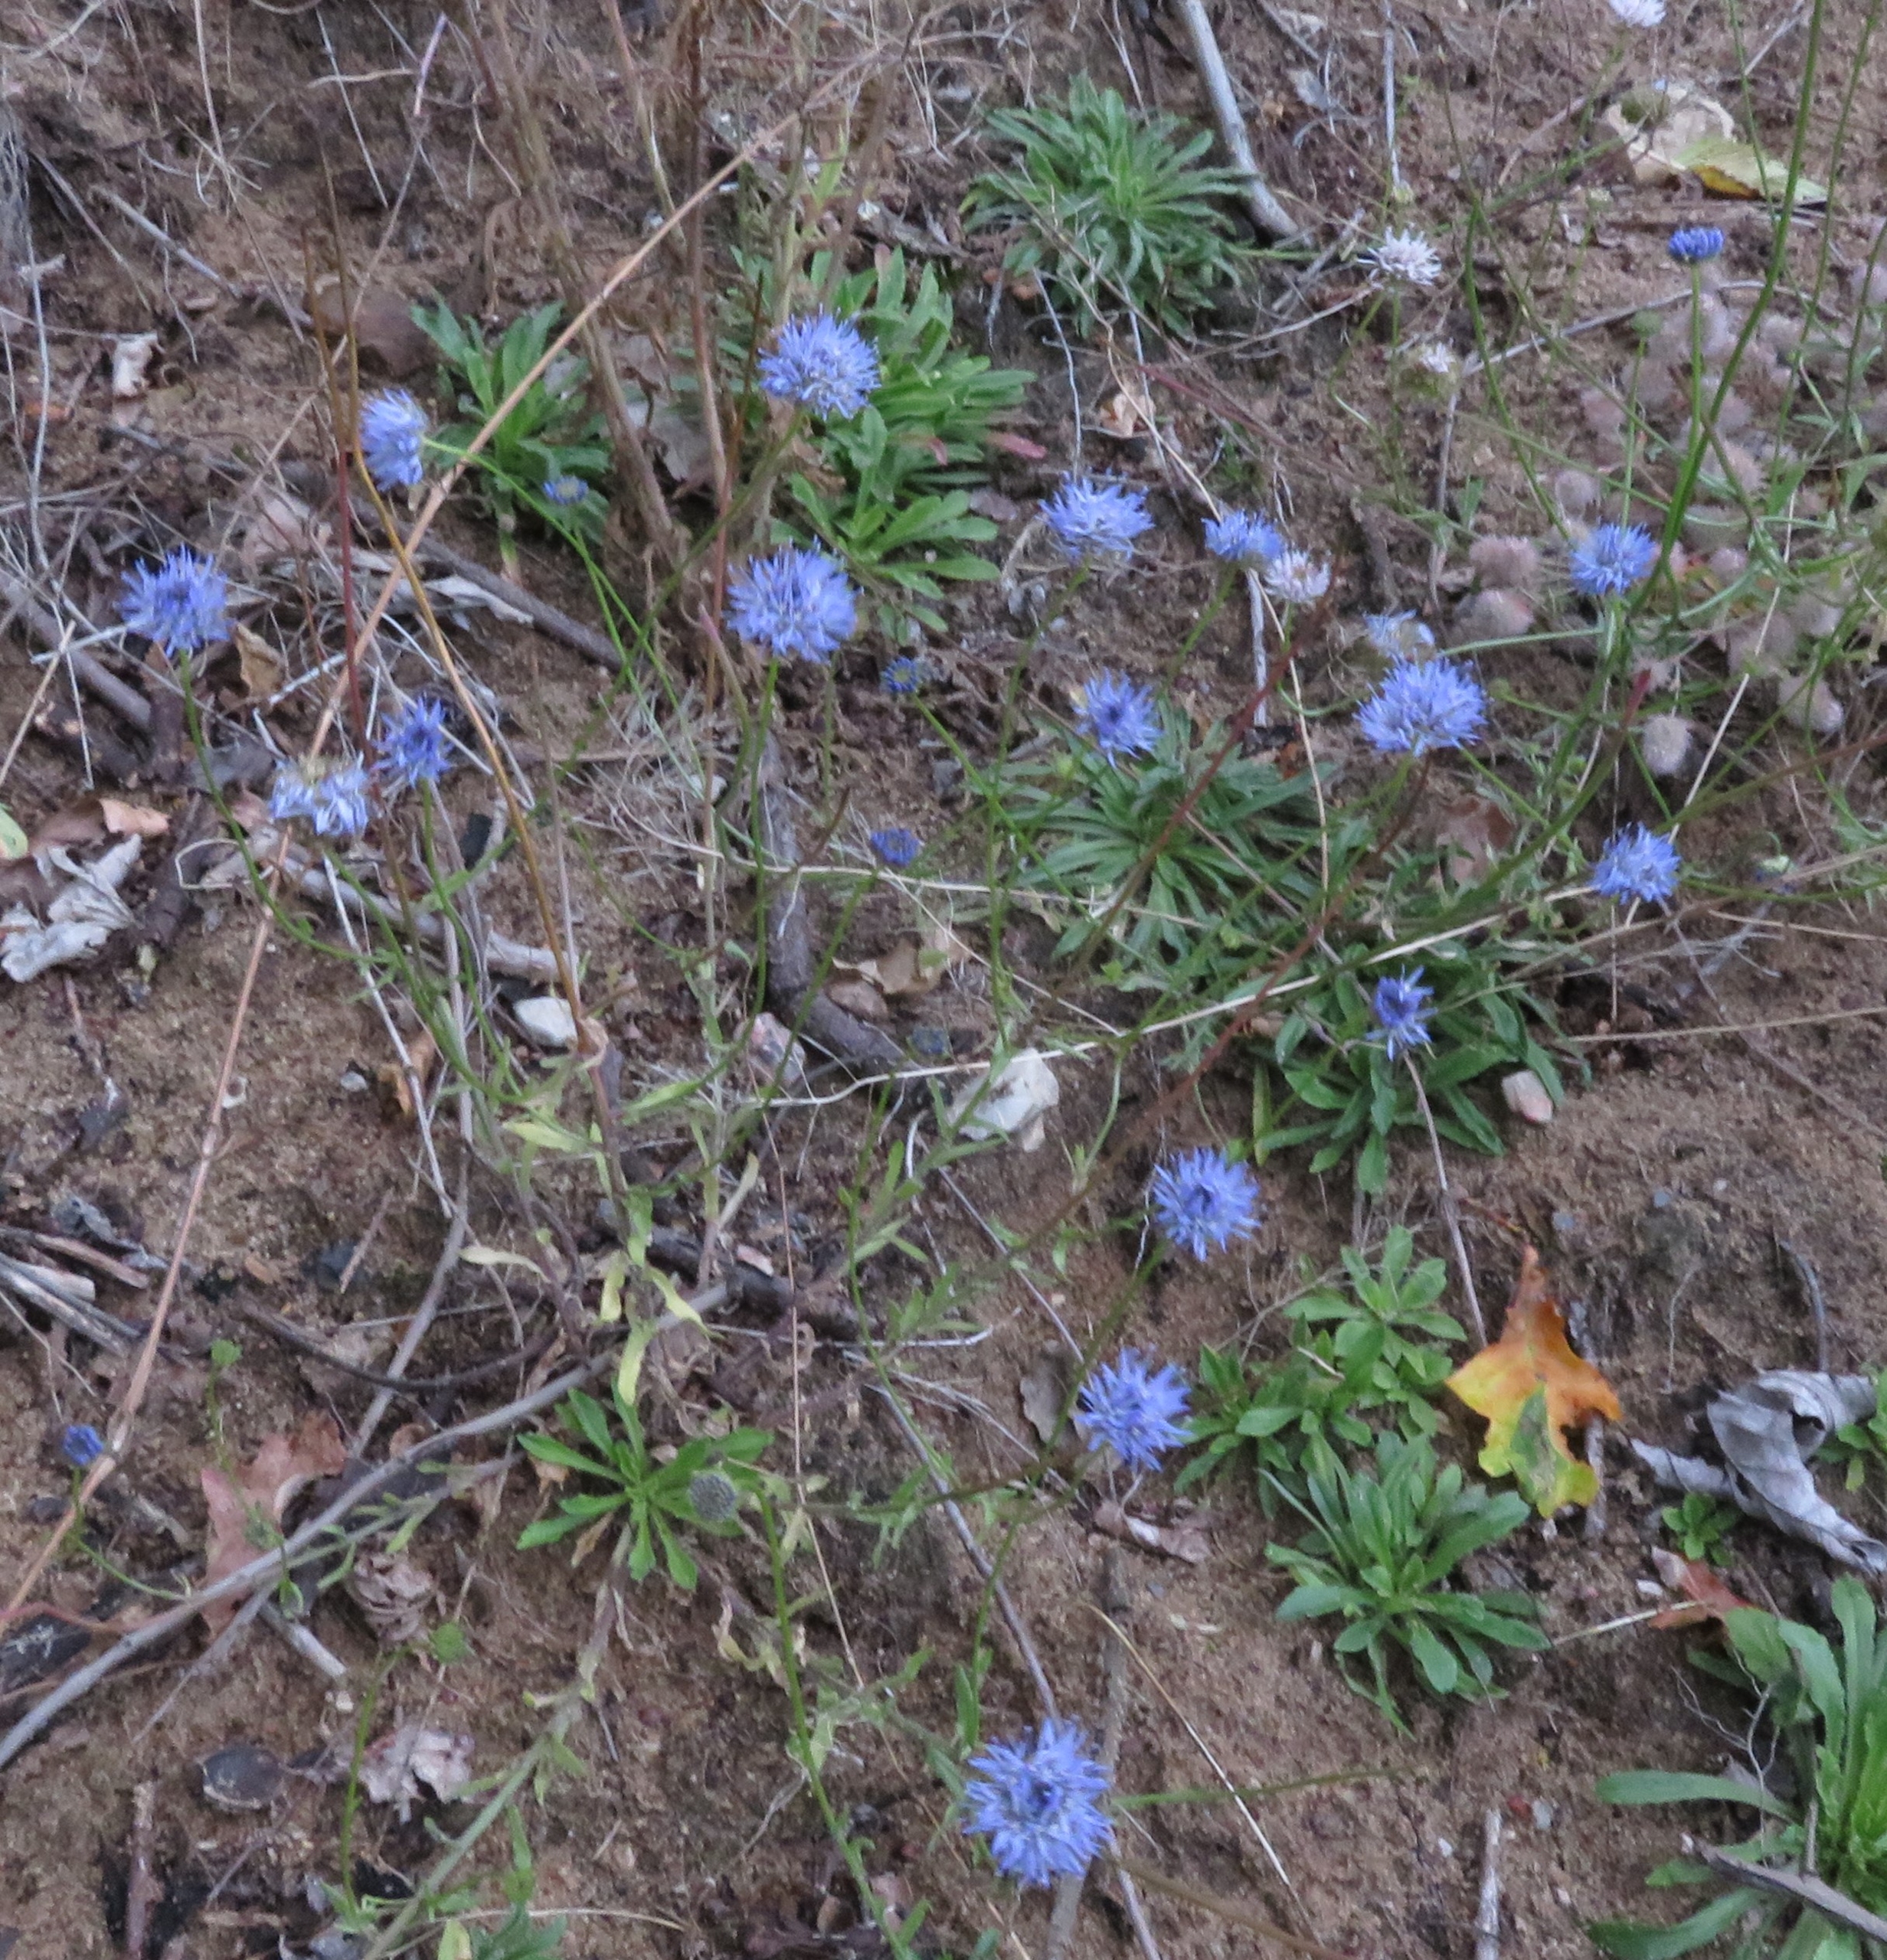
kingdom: Plantae
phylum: Tracheophyta
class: Magnoliopsida
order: Asterales
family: Campanulaceae
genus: Jasione
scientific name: Jasione montana
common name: Blåmunke
